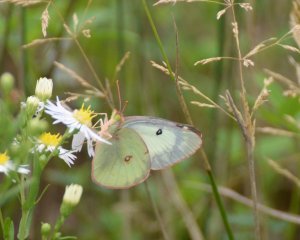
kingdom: Animalia
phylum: Arthropoda
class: Insecta
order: Lepidoptera
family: Pieridae
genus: Colias
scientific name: Colias philodice
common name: Clouded Sulphur
